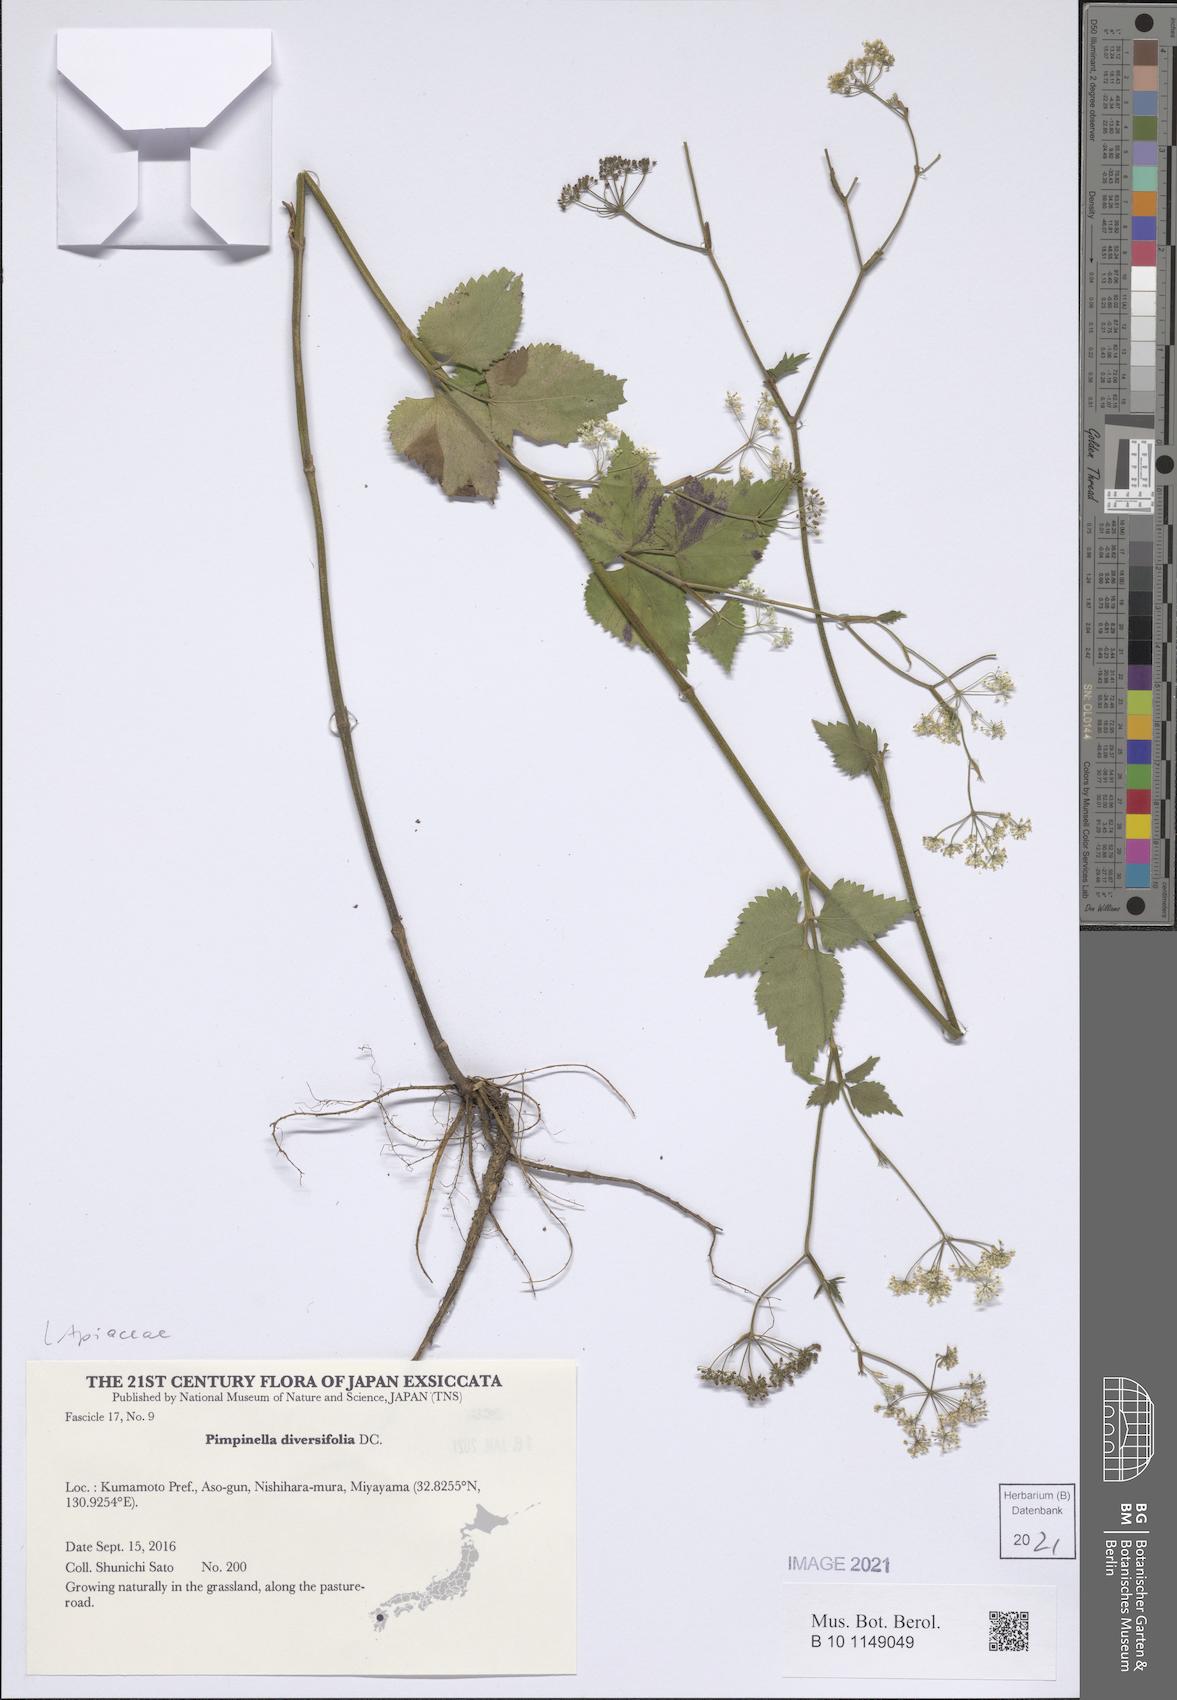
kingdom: Plantae
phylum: Tracheophyta
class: Magnoliopsida
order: Apiales
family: Apiaceae
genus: Pimpinella
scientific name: Pimpinella diversifolia
